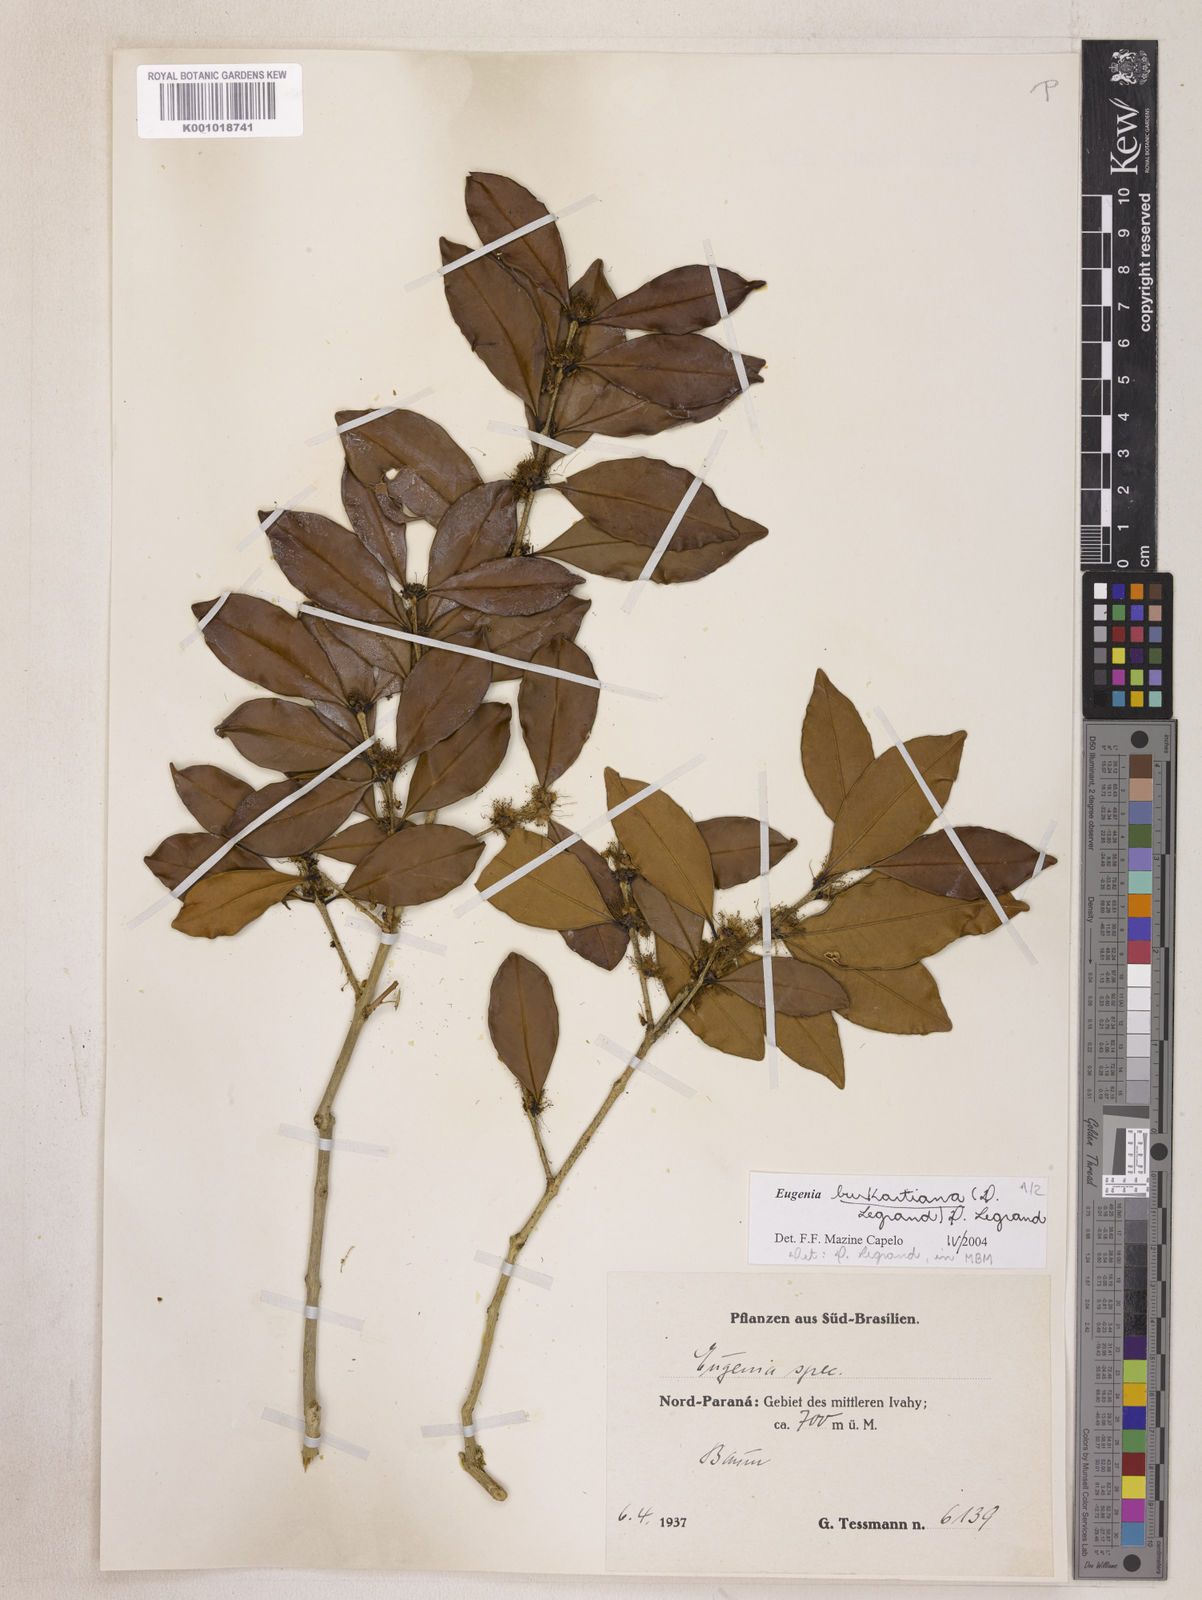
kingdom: Plantae
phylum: Tracheophyta
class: Magnoliopsida
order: Myrtales
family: Myrtaceae
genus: Eugenia
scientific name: Eugenia burkartiana
